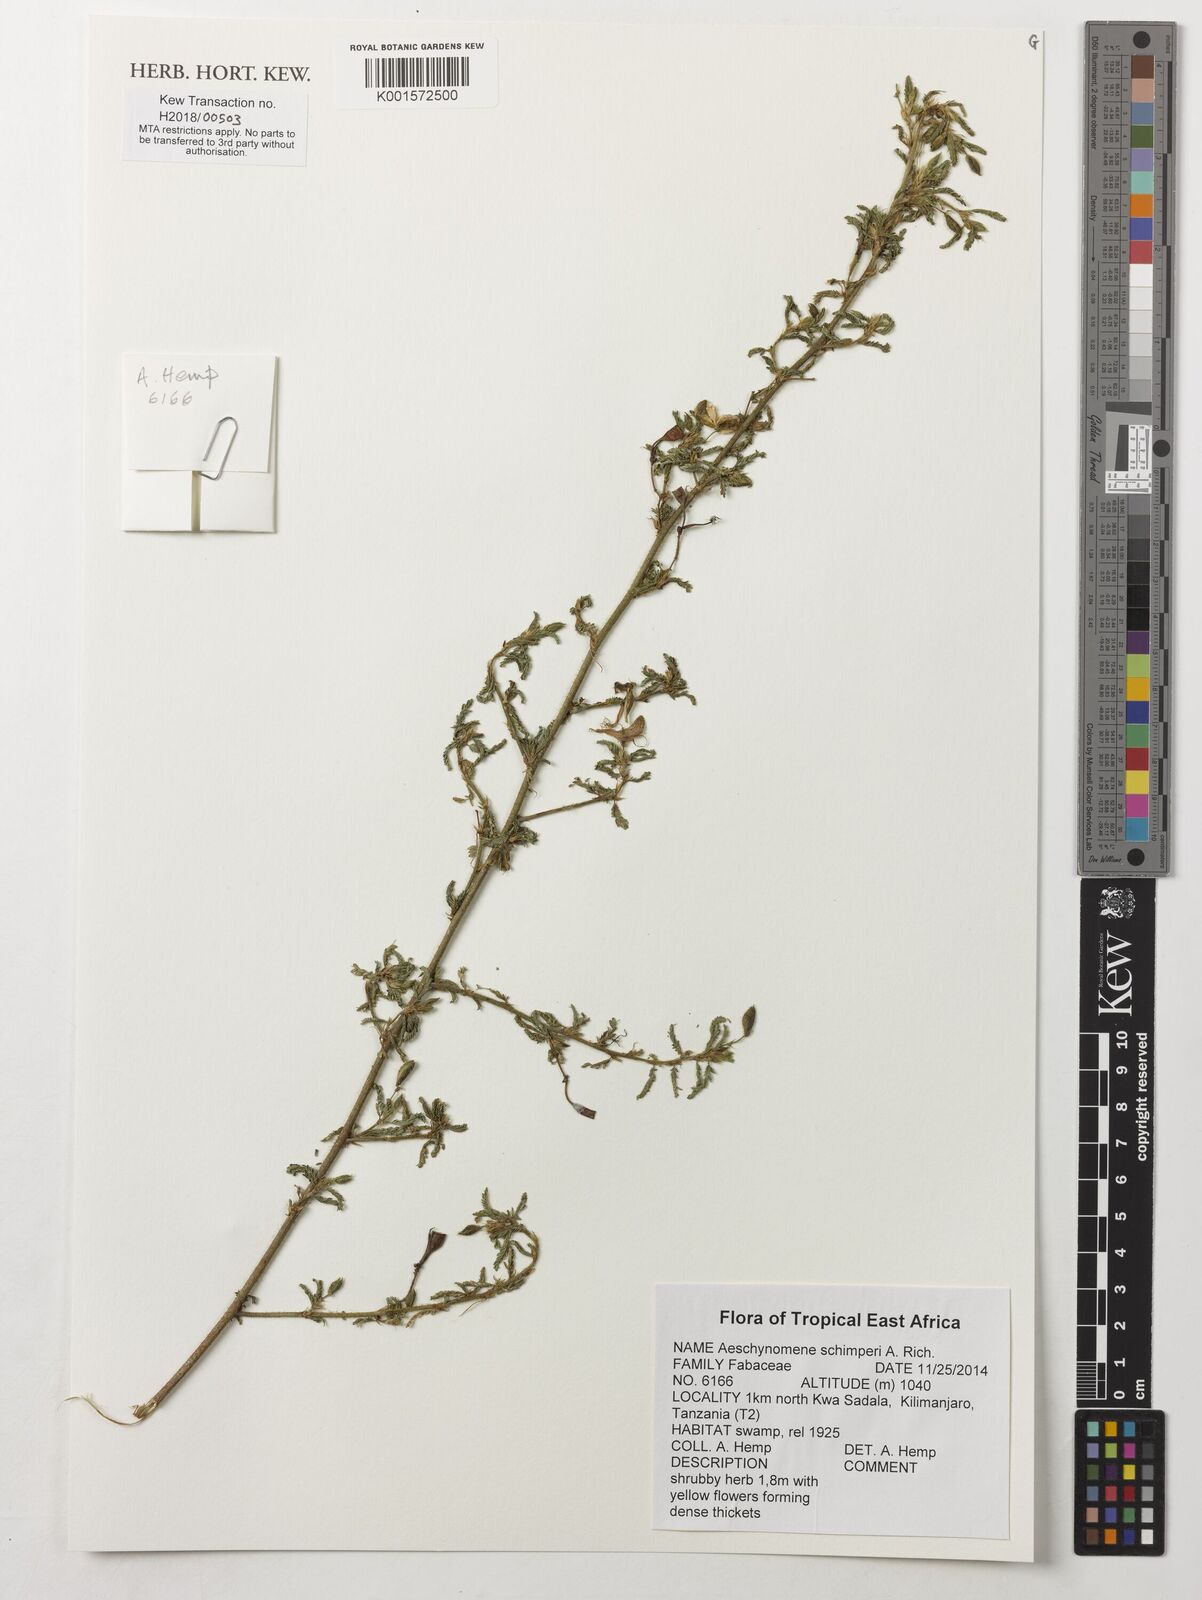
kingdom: Plantae
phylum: Tracheophyta
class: Magnoliopsida
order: Fabales
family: Fabaceae
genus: Aeschynomene
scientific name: Aeschynomene schimperi
